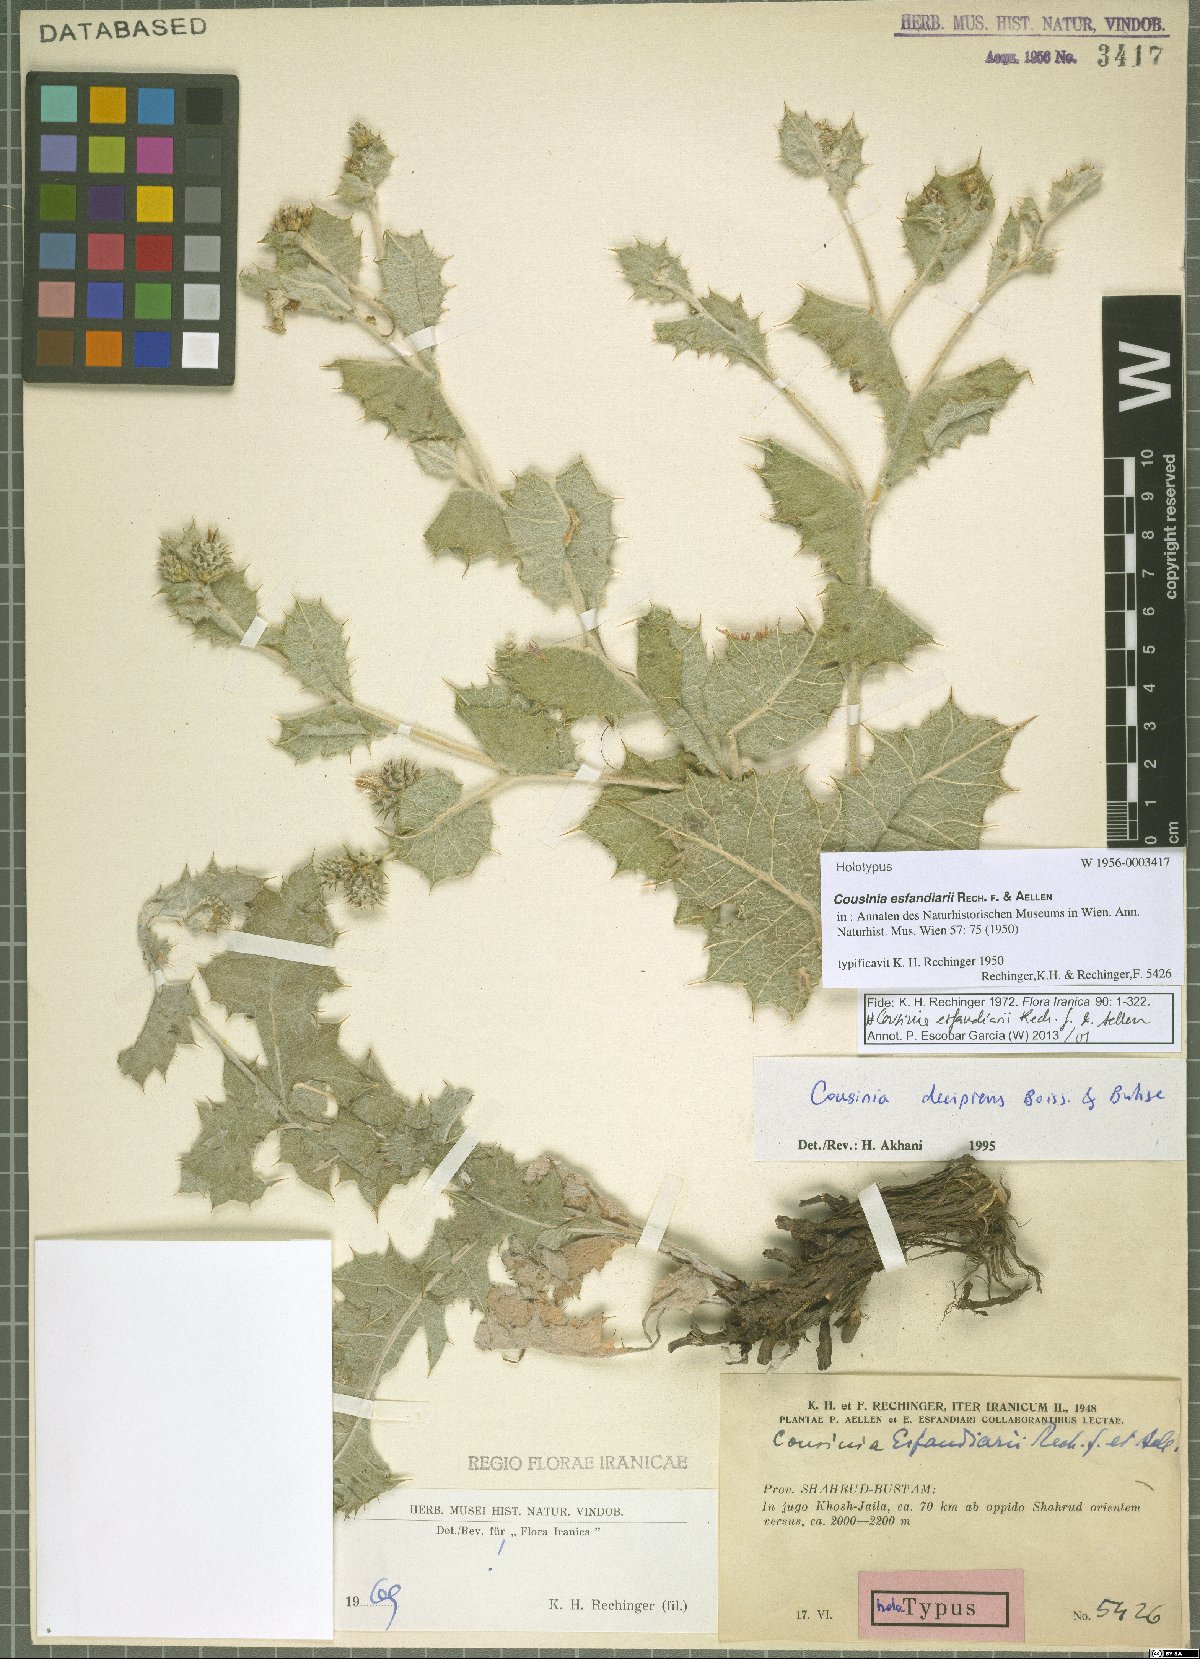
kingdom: Plantae
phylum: Tracheophyta
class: Magnoliopsida
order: Asterales
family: Asteraceae
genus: Cousinia
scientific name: Cousinia esfandiarii
